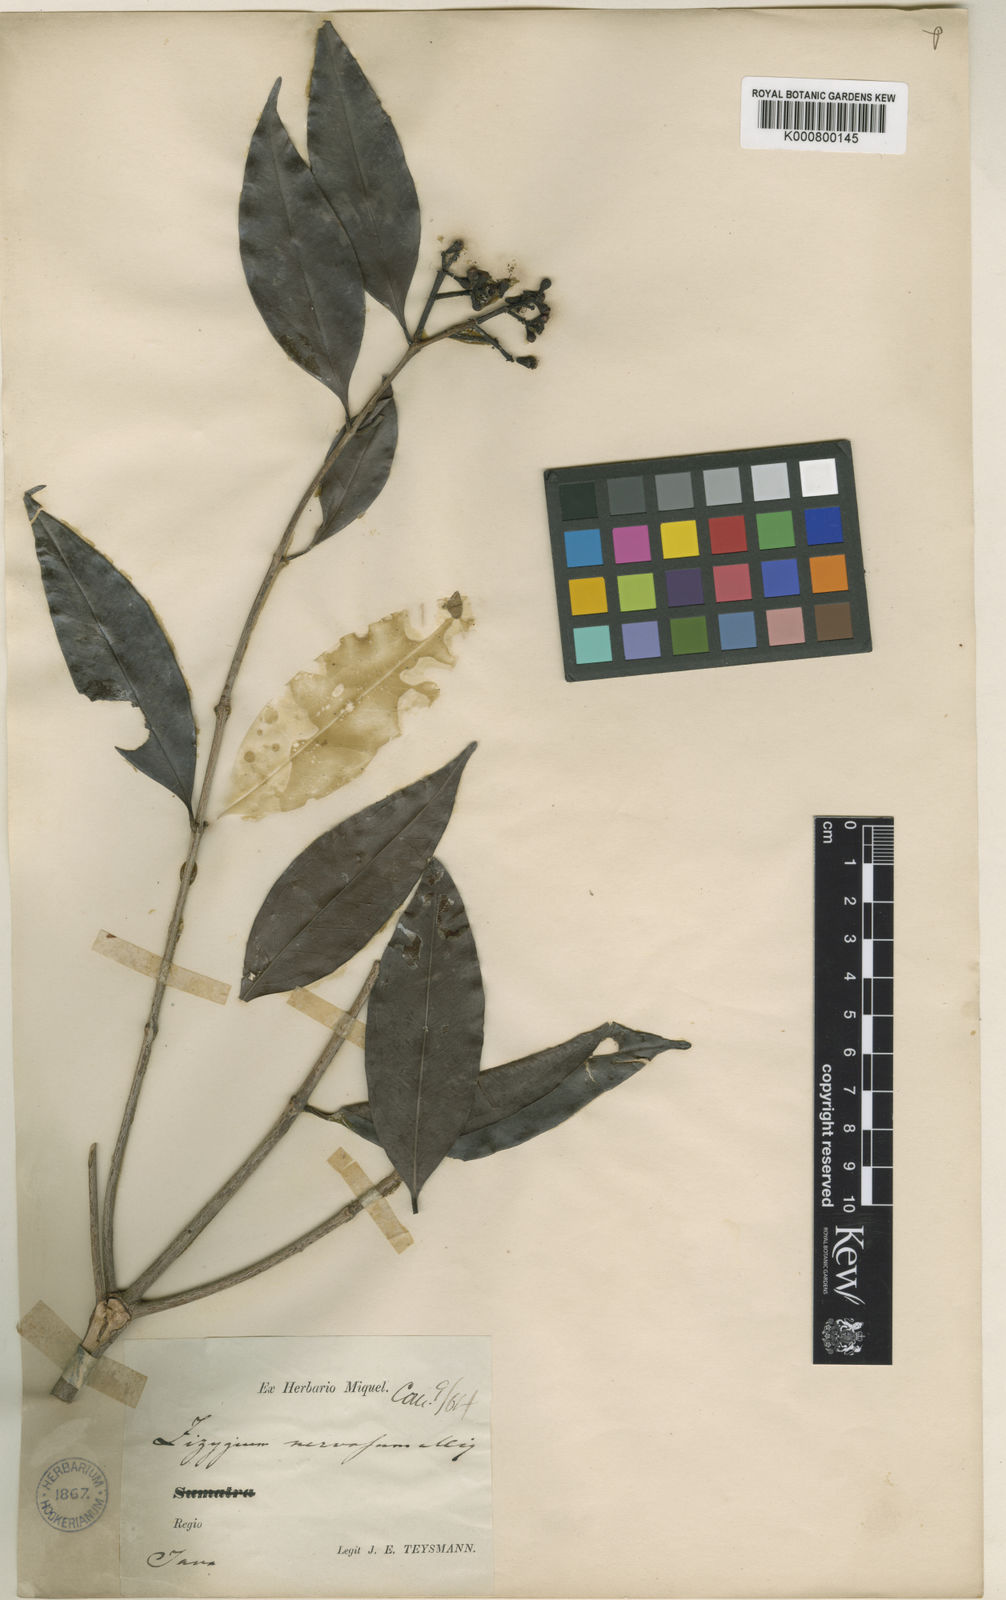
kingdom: Plantae
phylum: Tracheophyta
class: Magnoliopsida
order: Myrtales
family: Myrtaceae
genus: Syzygium
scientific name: Syzygium corymbosum
